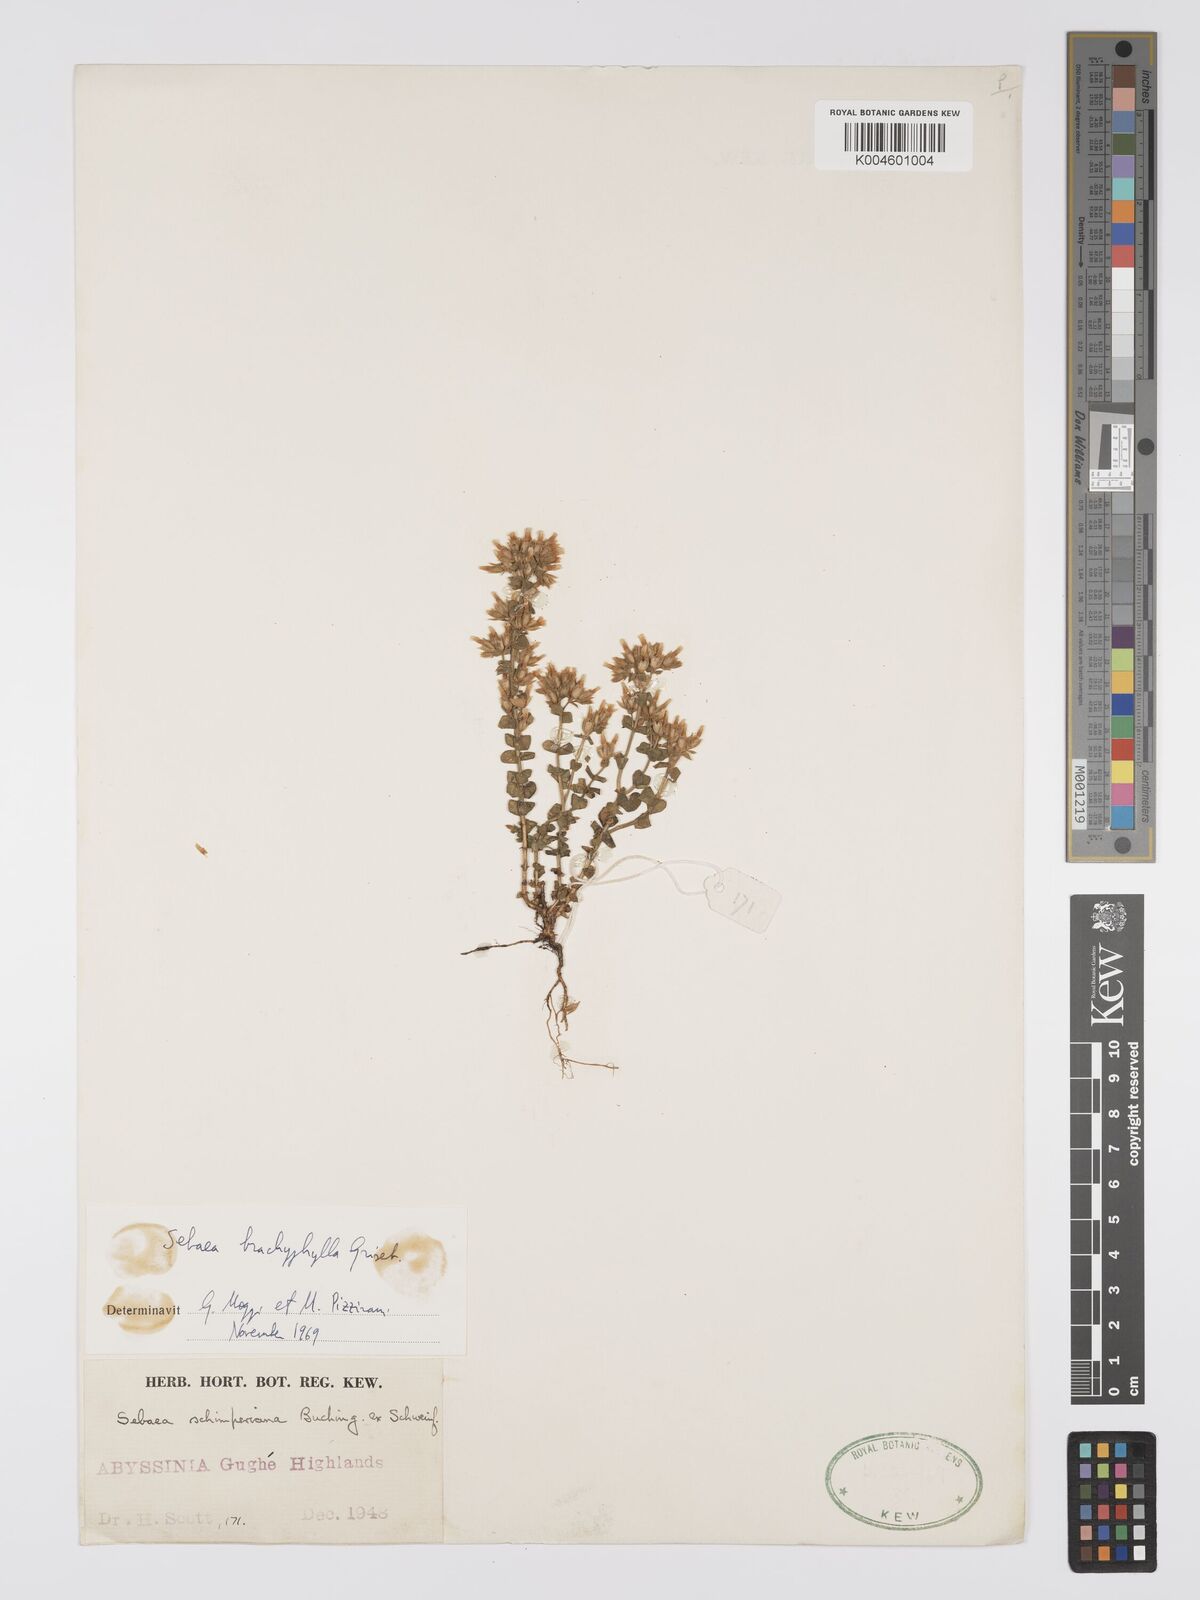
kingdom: Plantae
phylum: Tracheophyta
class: Magnoliopsida
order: Gentianales
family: Gentianaceae
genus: Sebaea
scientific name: Sebaea brachyphylla
